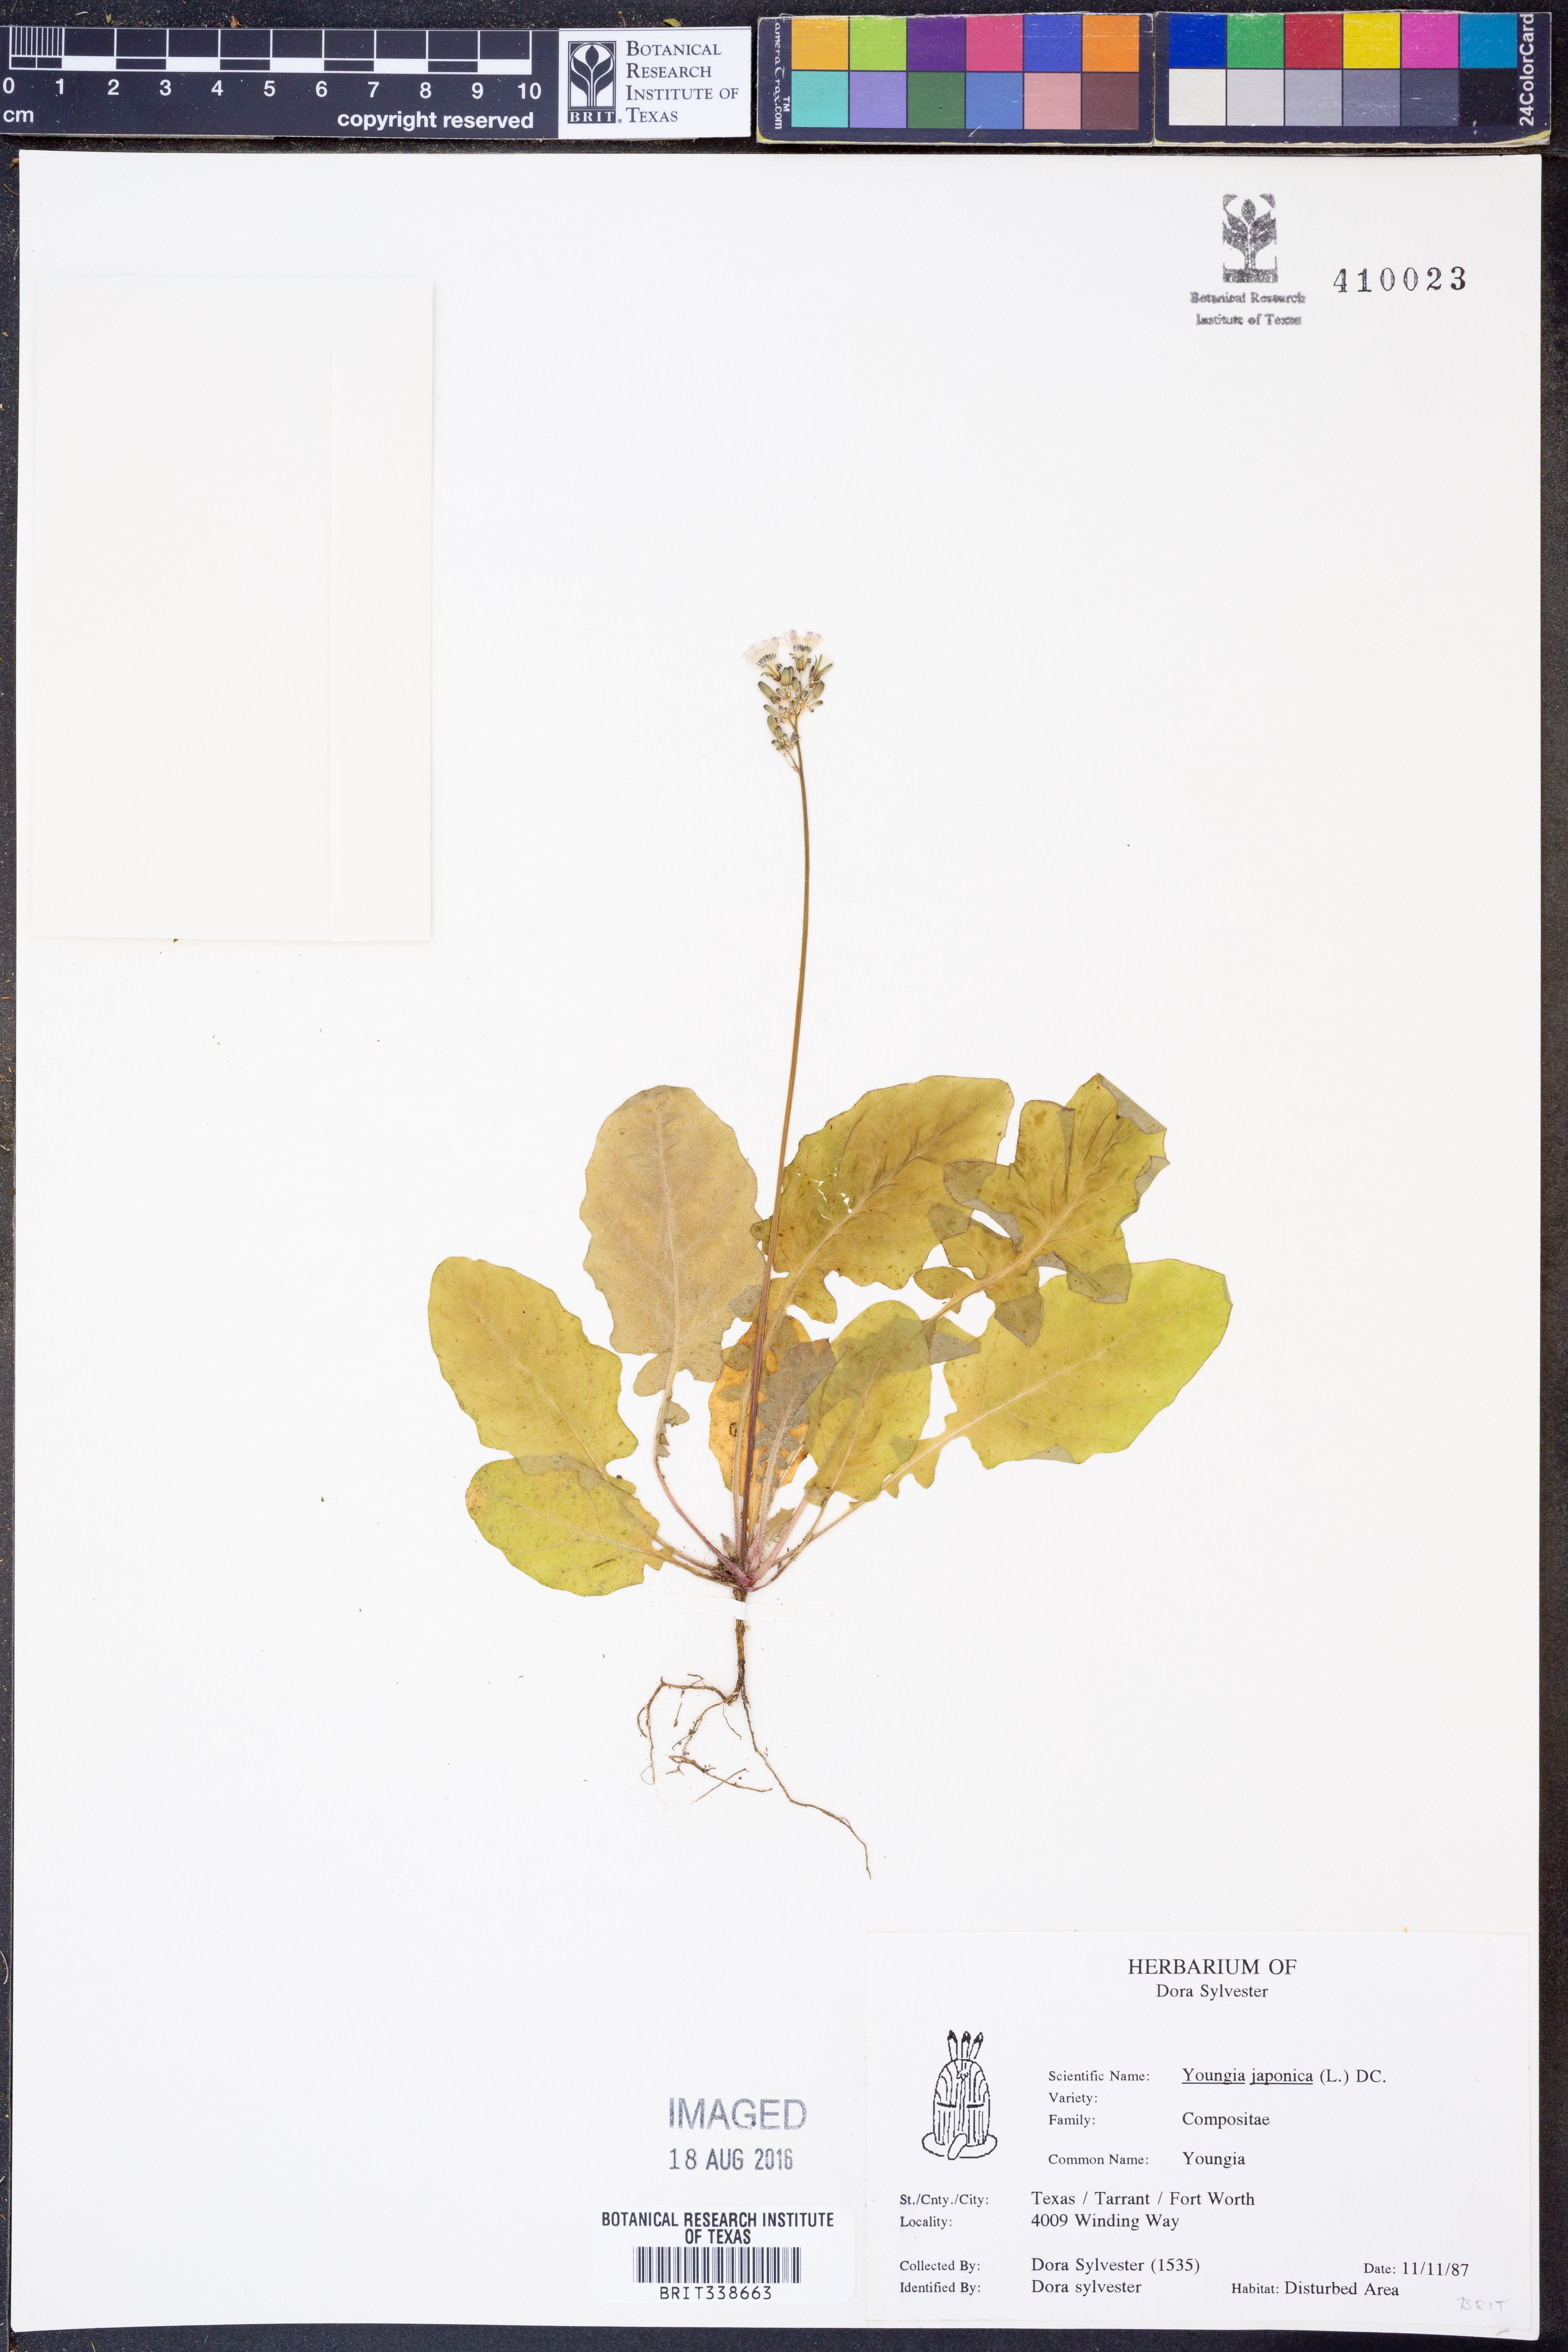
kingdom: Plantae
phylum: Tracheophyta
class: Magnoliopsida
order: Asterales
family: Asteraceae
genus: Youngia
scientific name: Youngia japonica
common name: Oriental false hawksbeard
